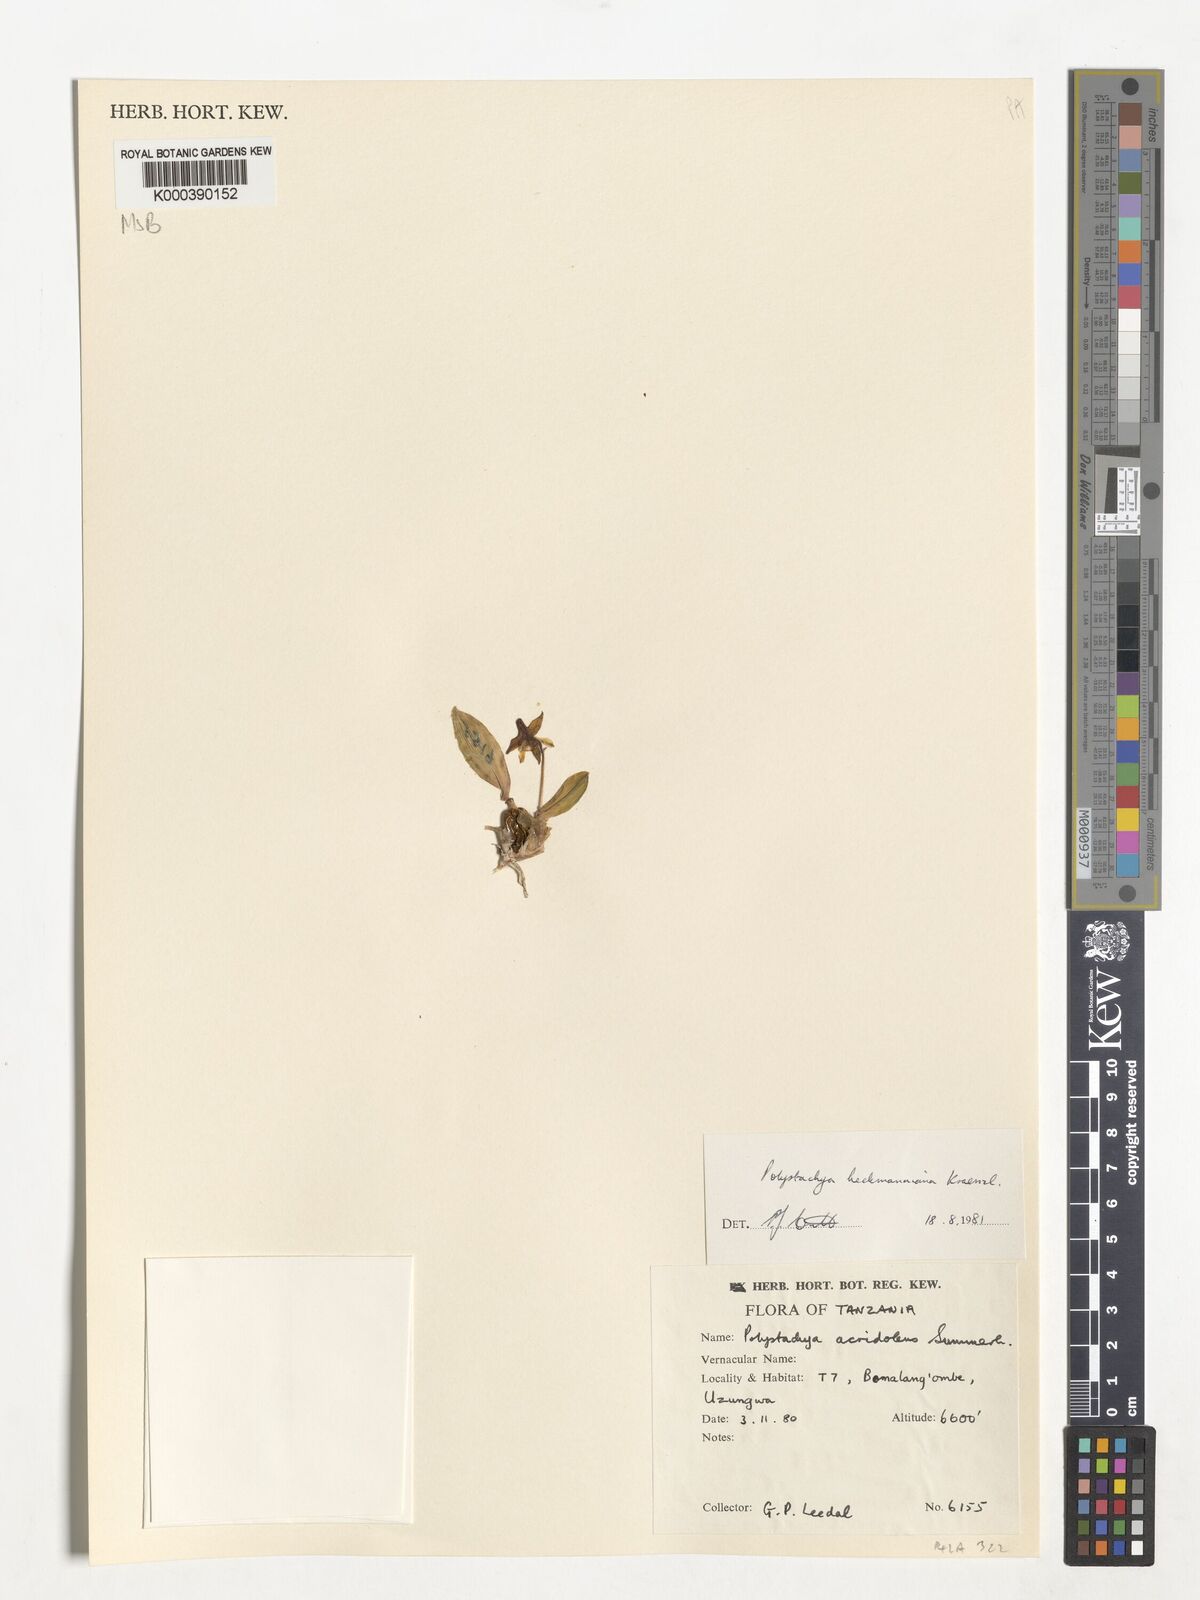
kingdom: Plantae
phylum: Tracheophyta
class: Liliopsida
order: Asparagales
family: Orchidaceae
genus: Polystachya
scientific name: Polystachya heckmanniana
